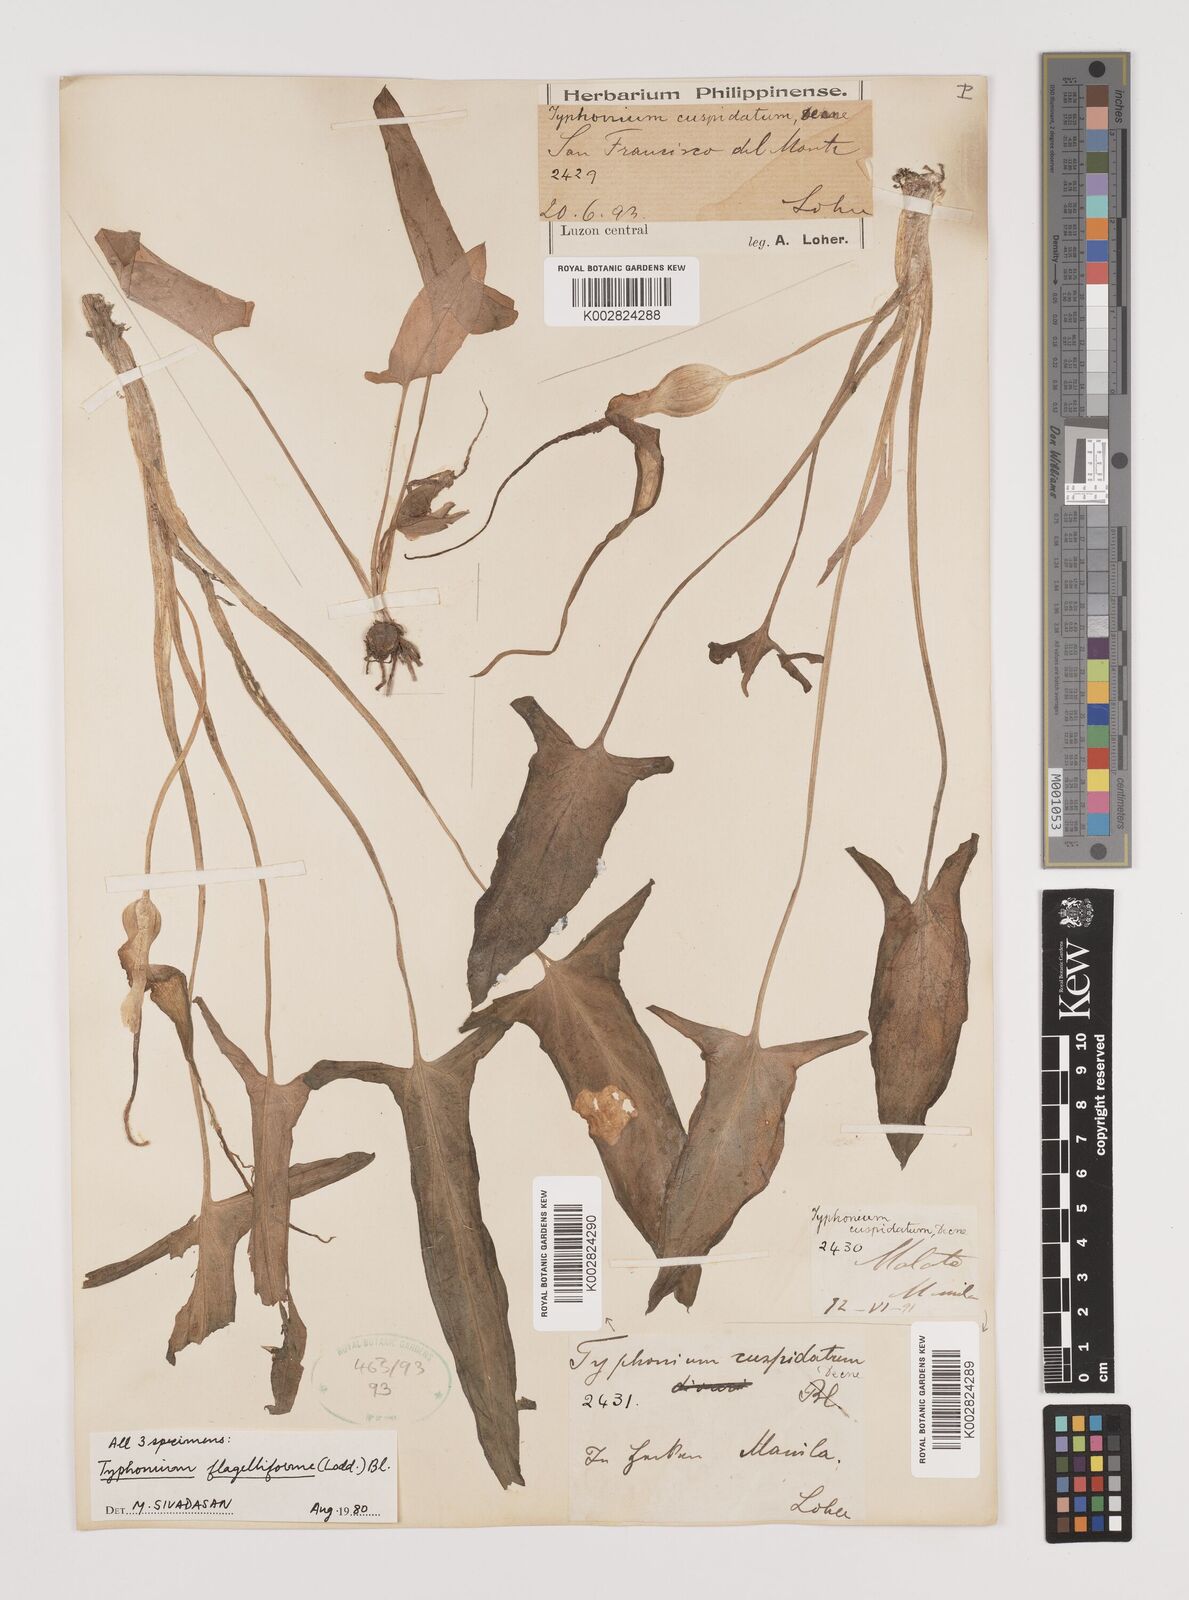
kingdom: Plantae
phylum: Tracheophyta
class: Liliopsida
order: Alismatales
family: Araceae
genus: Typhonium
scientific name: Typhonium flagelliforme
